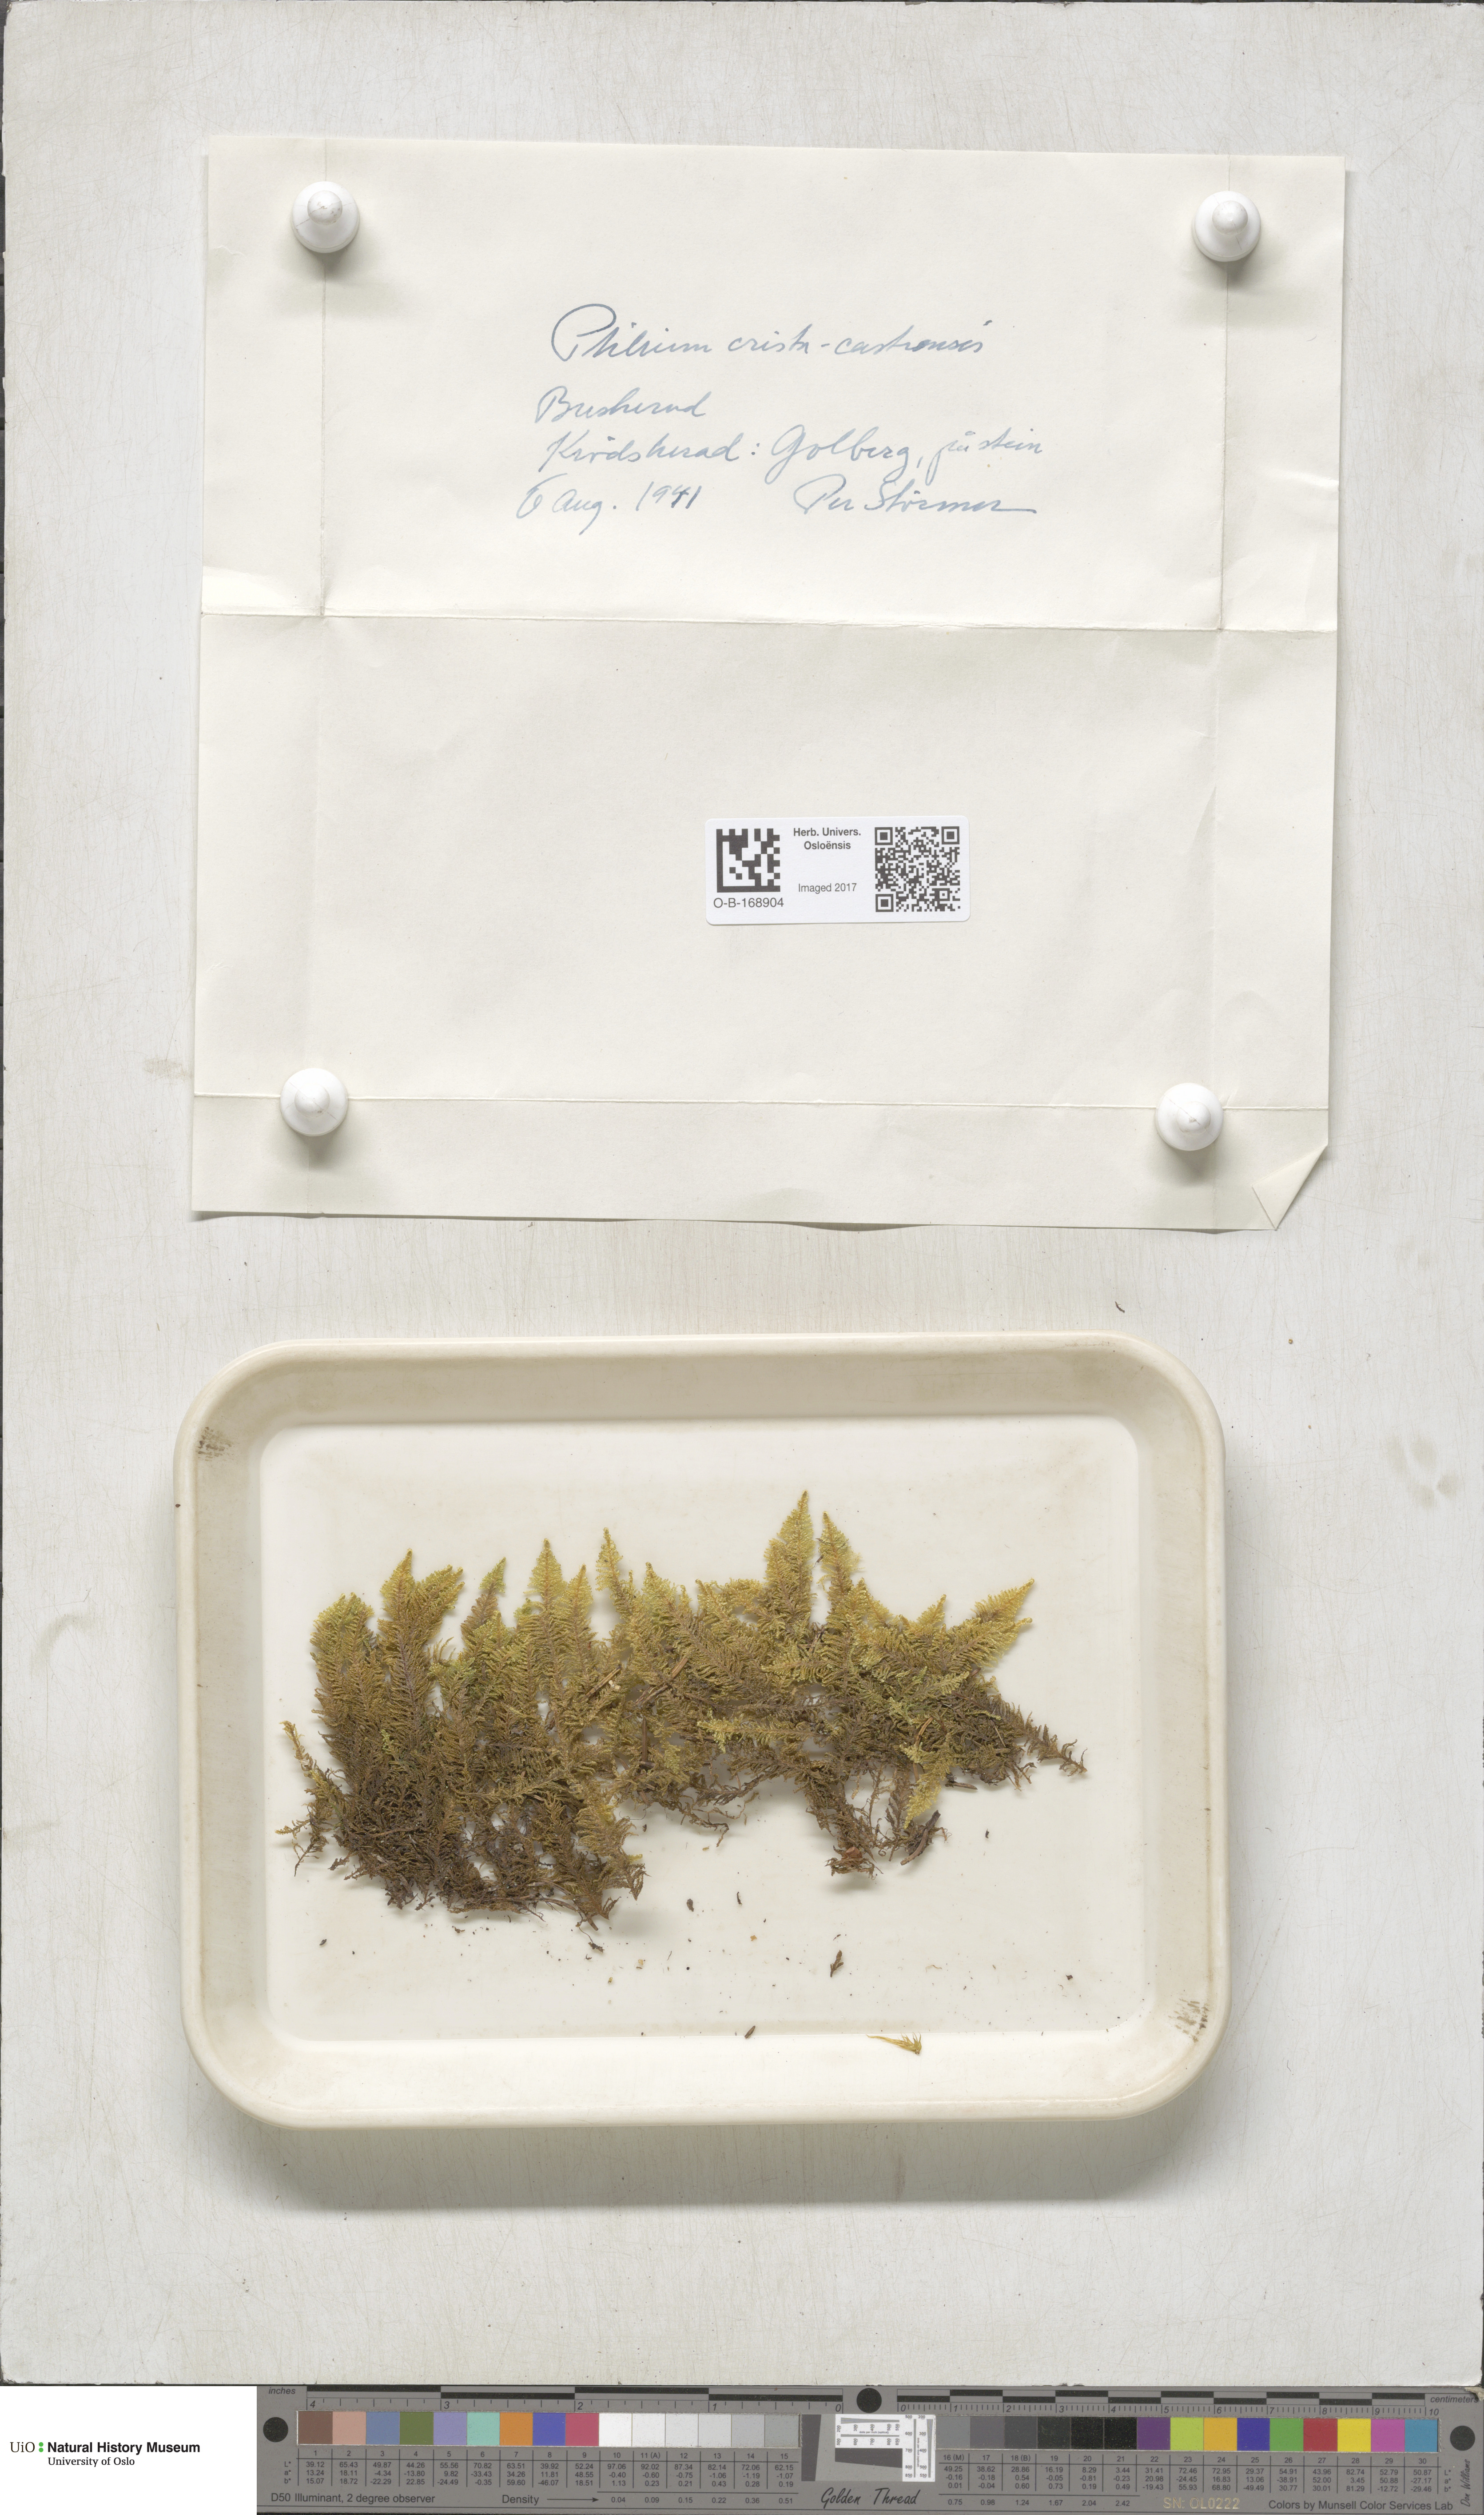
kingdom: Plantae
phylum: Bryophyta
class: Bryopsida
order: Hypnales
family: Pylaisiaceae
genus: Ptilium
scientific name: Ptilium crista-castrensis
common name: Knight's plume moss
